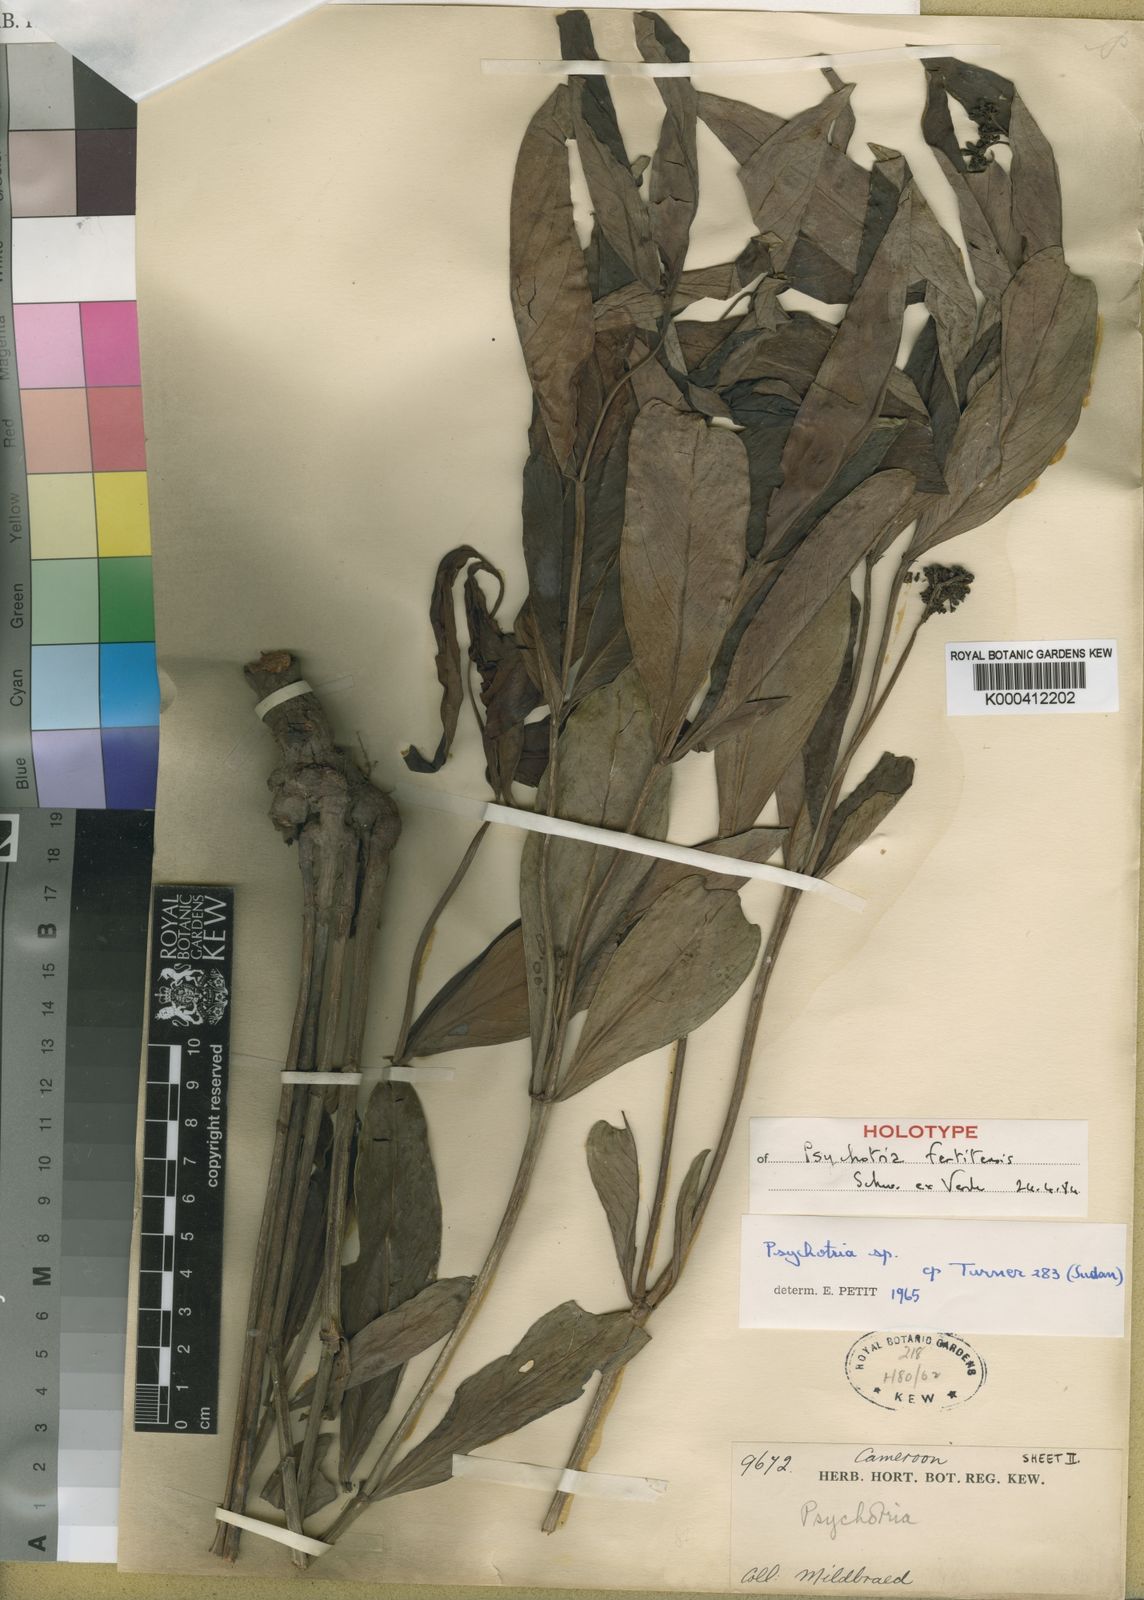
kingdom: Plantae
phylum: Tracheophyta
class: Magnoliopsida
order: Gentianales
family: Rubiaceae
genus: Psychotria
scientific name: Psychotria moninensis
